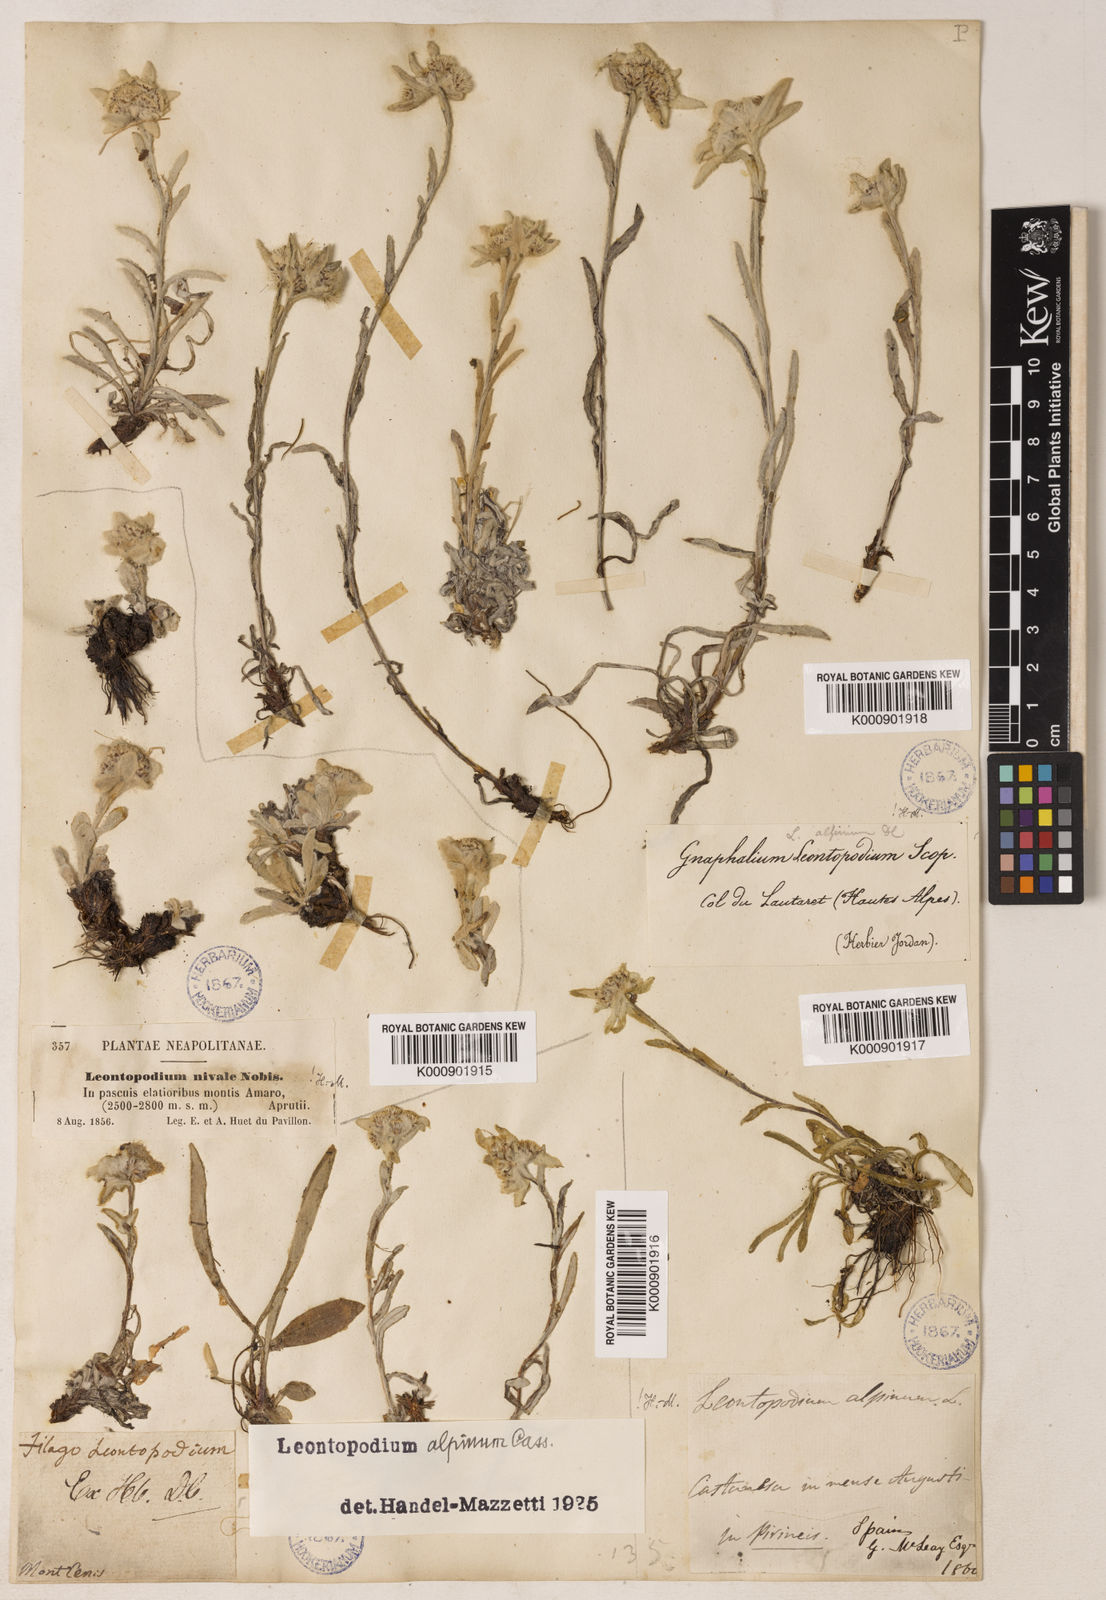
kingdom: Plantae
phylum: Tracheophyta
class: Magnoliopsida
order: Asterales
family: Asteraceae
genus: Leontopodium
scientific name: Leontopodium nivale
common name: Edelweiss
